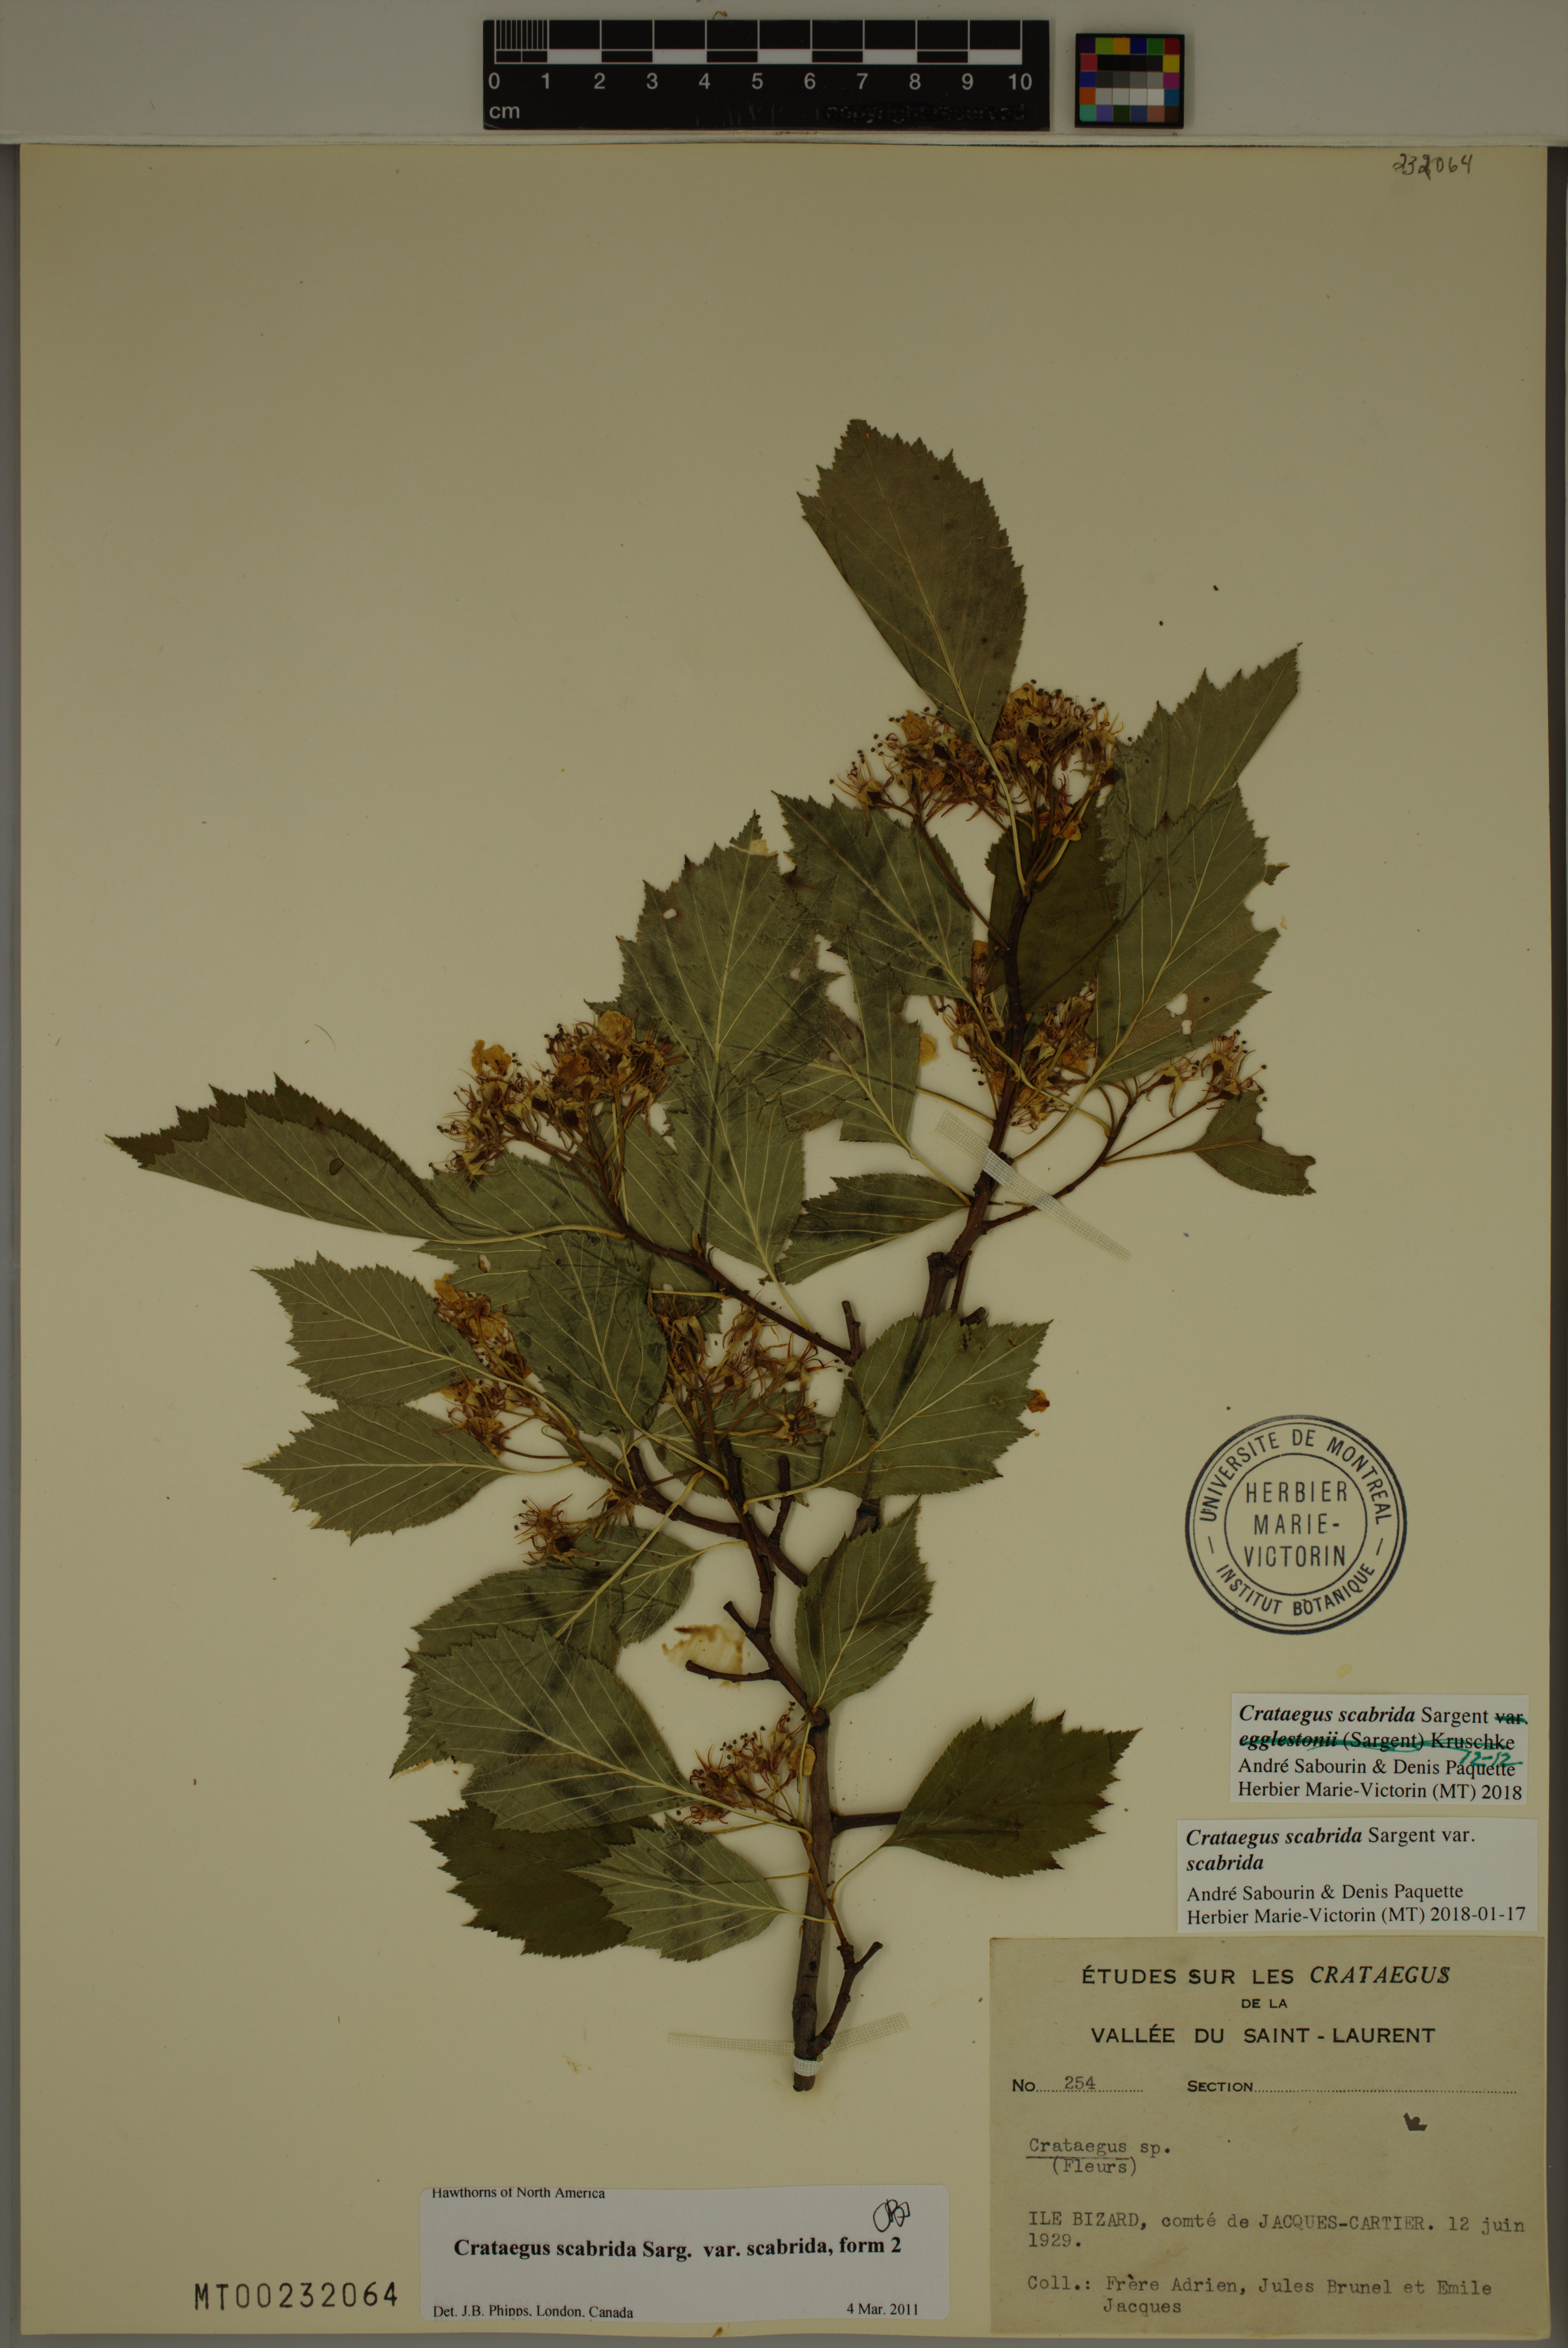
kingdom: Plantae
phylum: Tracheophyta
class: Magnoliopsida
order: Rosales
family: Rosaceae
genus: Crataegus
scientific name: Crataegus scabrida
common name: Rough hawthorn
